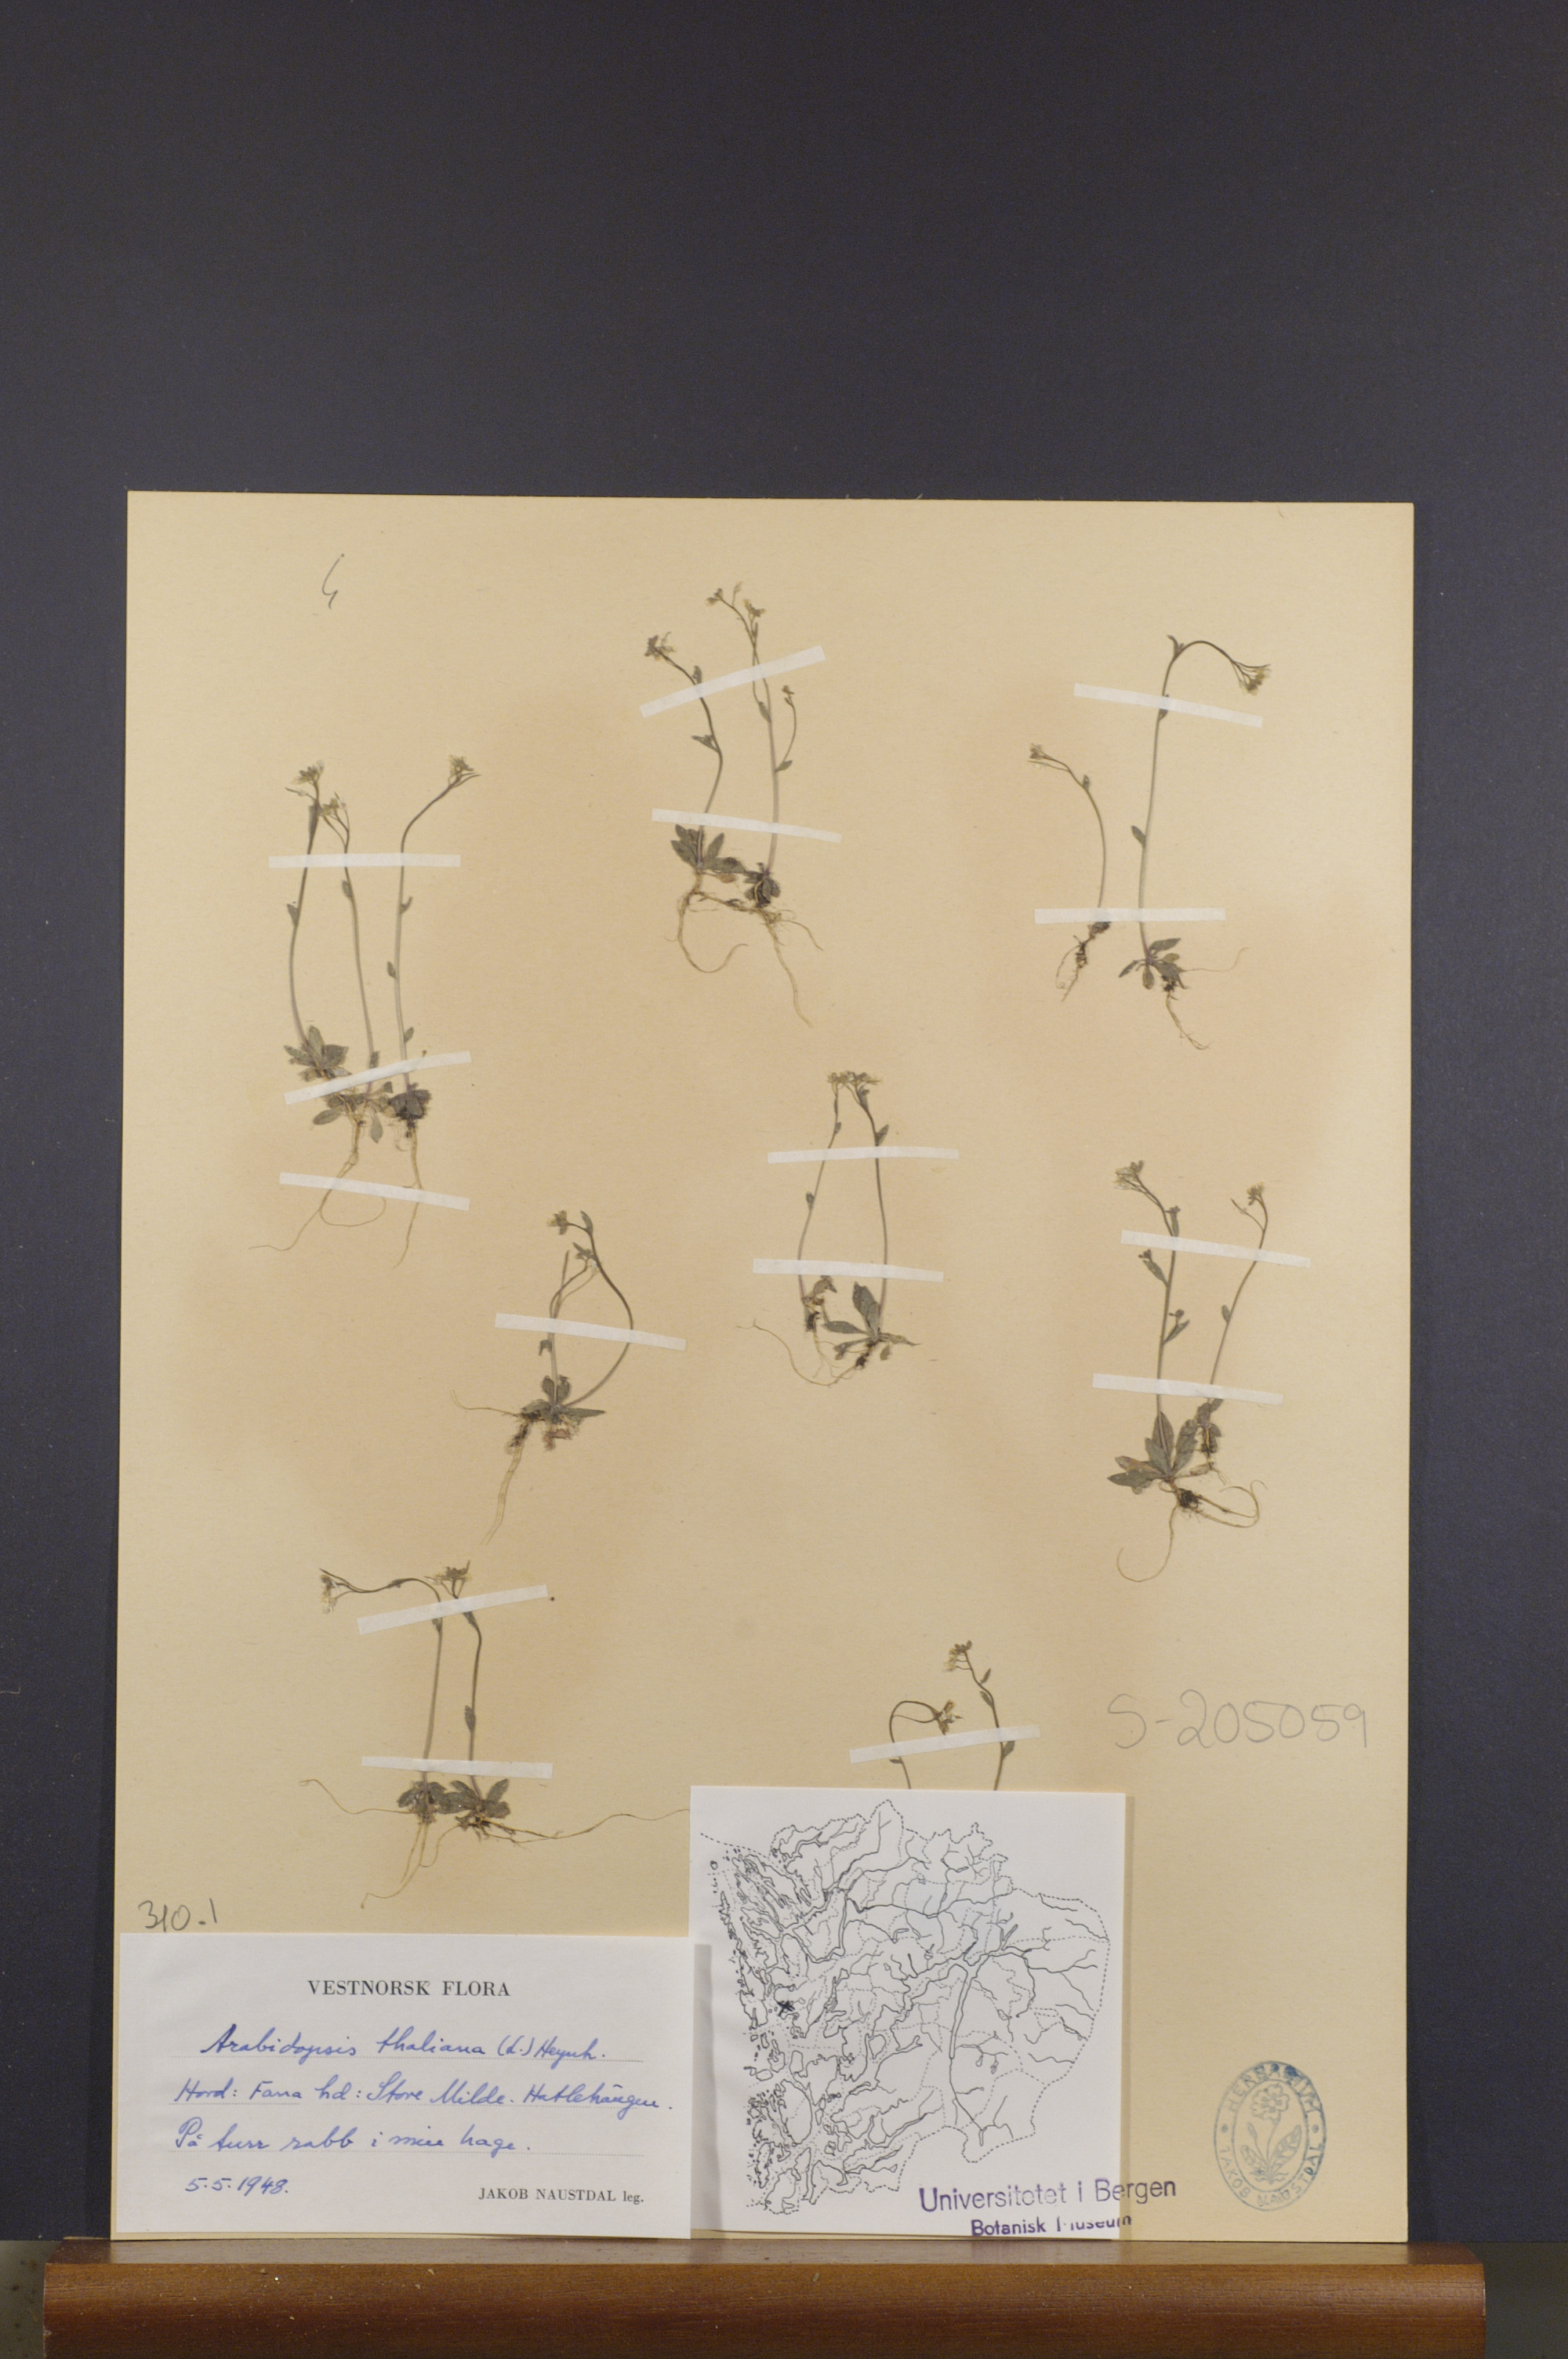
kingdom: Plantae
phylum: Tracheophyta
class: Magnoliopsida
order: Brassicales
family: Brassicaceae
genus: Arabidopsis
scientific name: Arabidopsis thaliana
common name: Thale cress
